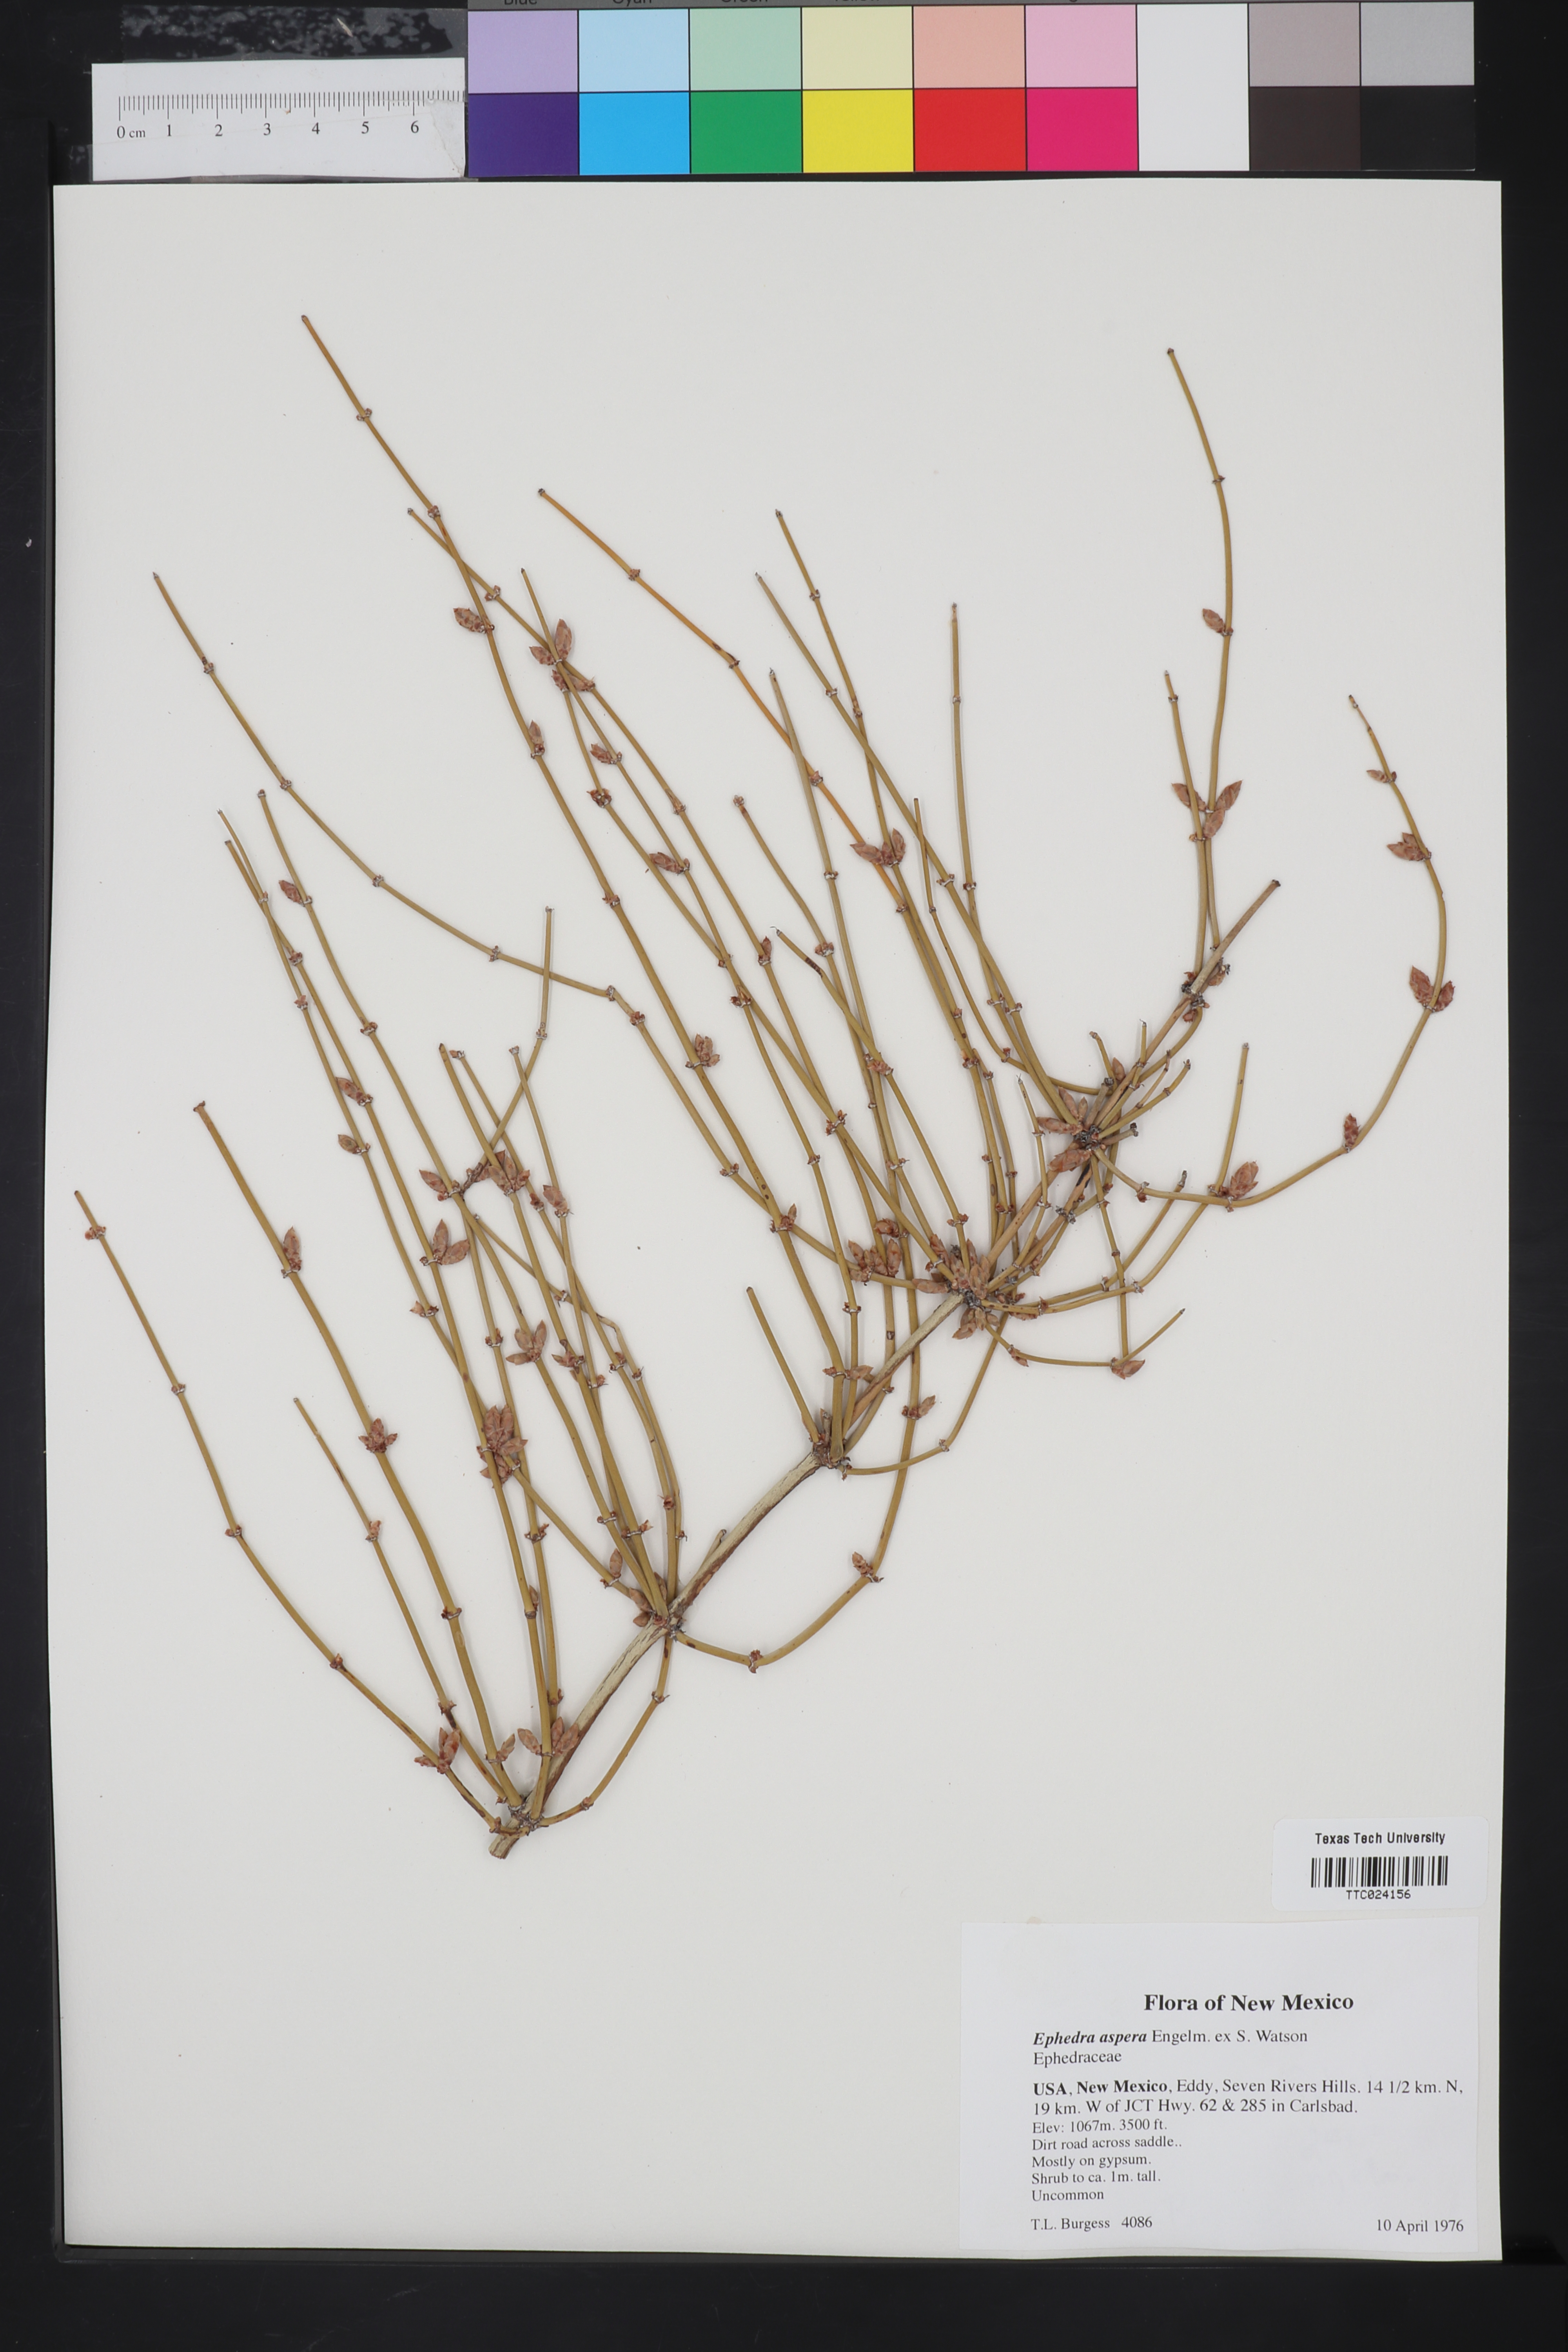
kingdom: Plantae
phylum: Tracheophyta
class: Gnetopsida
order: Ephedrales
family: Ephedraceae
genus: Ephedra
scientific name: Ephedra aspera
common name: Boundary ephedra
